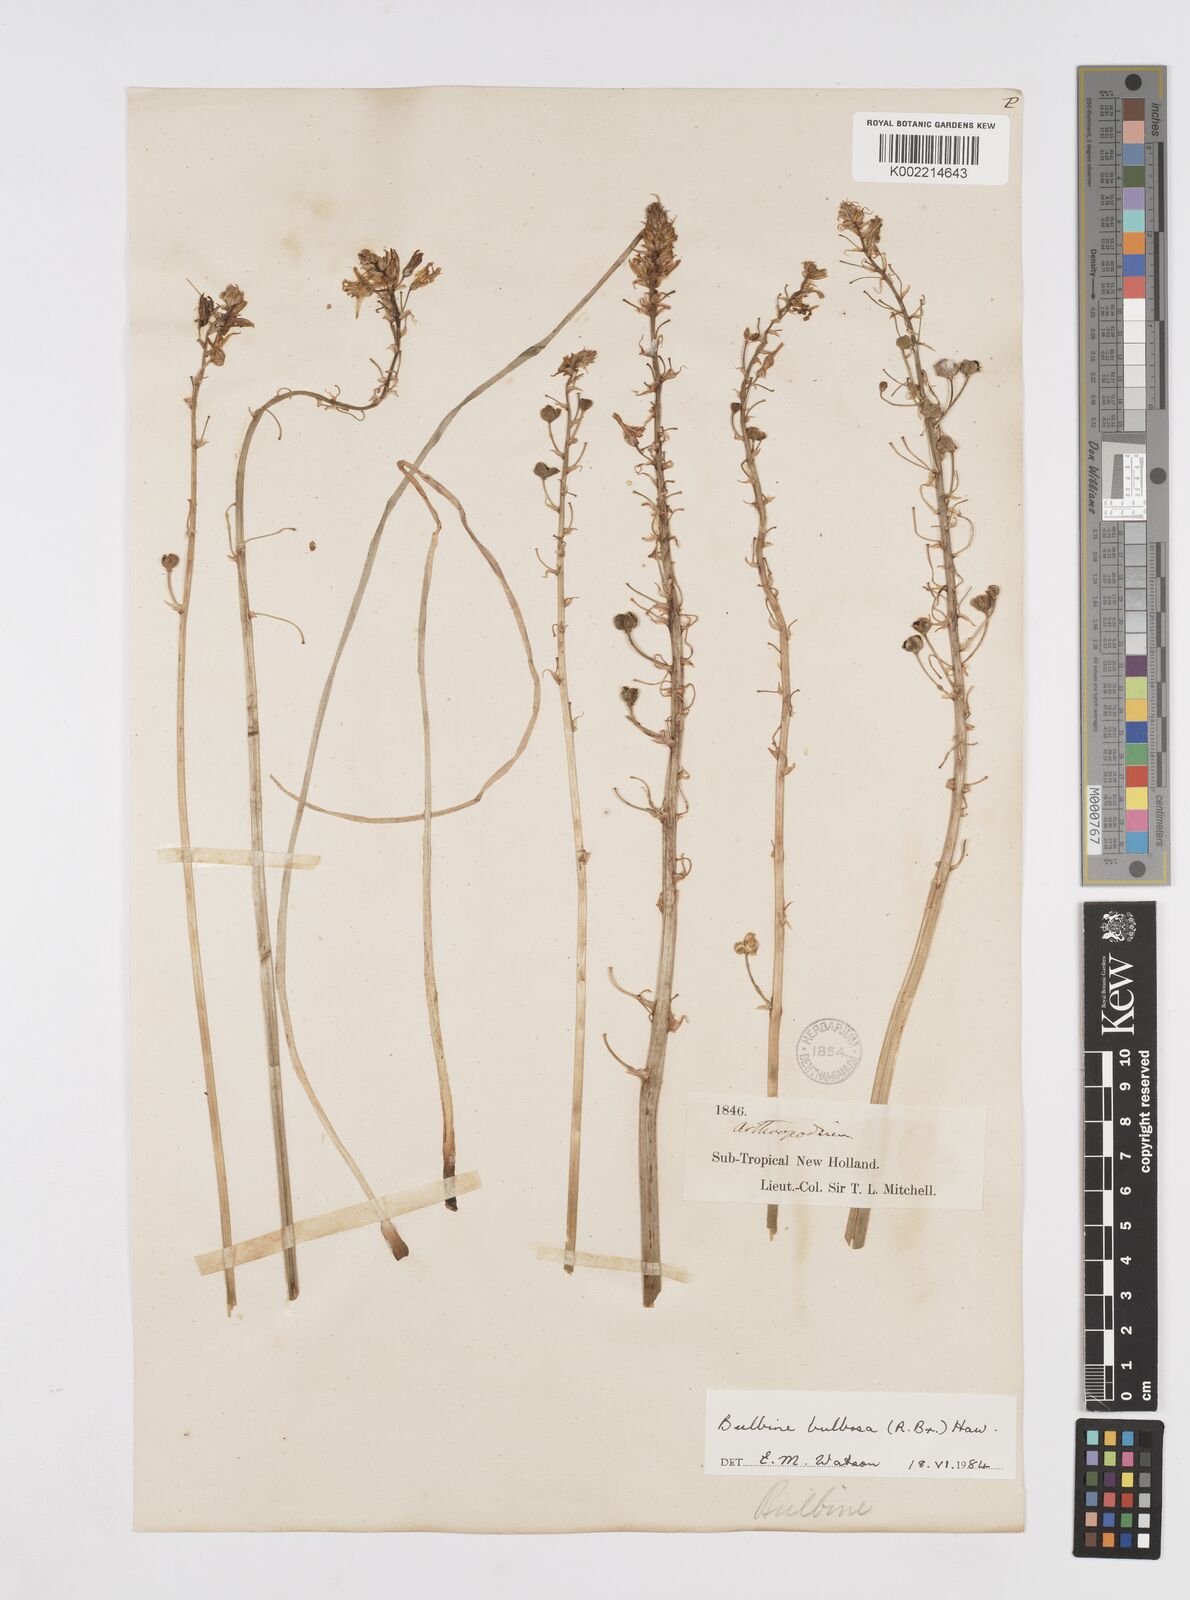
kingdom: Plantae
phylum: Tracheophyta
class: Liliopsida
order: Asparagales
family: Asphodelaceae
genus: Bulbine
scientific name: Bulbine bulbosa
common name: Golden-lily
